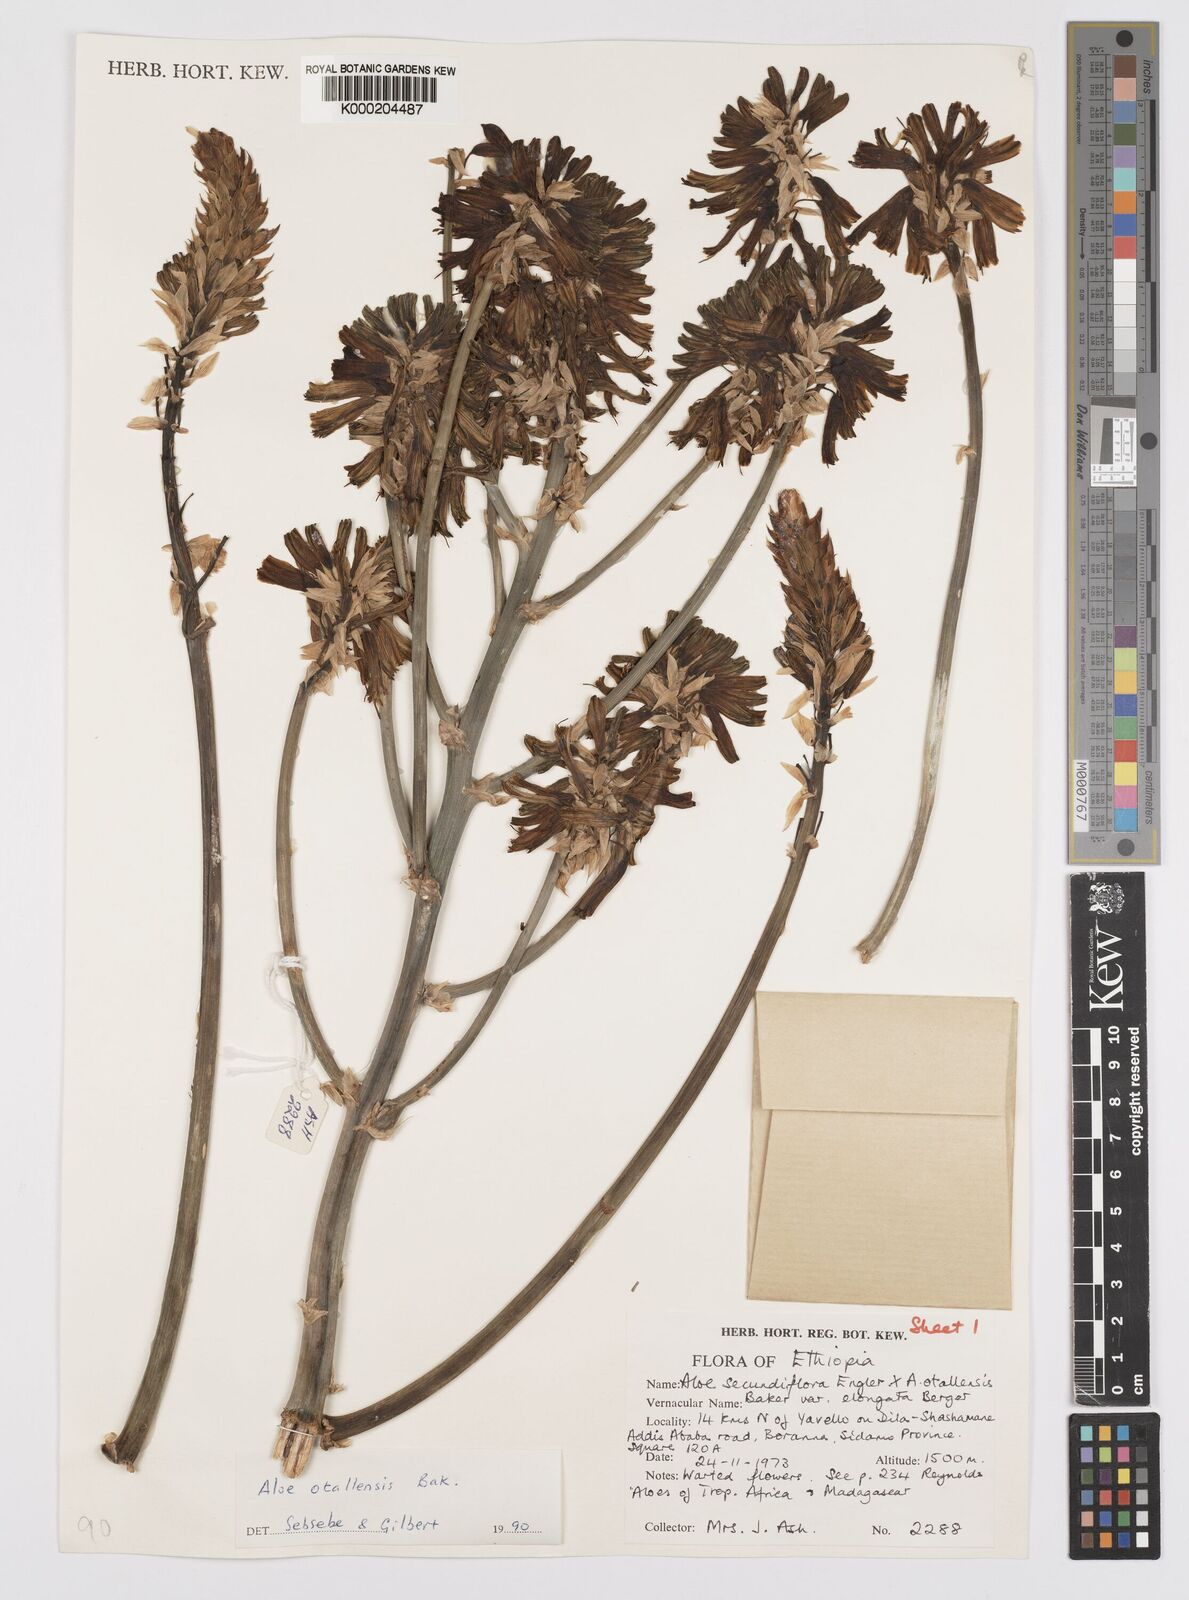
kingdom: Plantae
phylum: Tracheophyta
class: Liliopsida
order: Asparagales
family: Asphodelaceae
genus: Aloe
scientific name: Aloe otallensis
